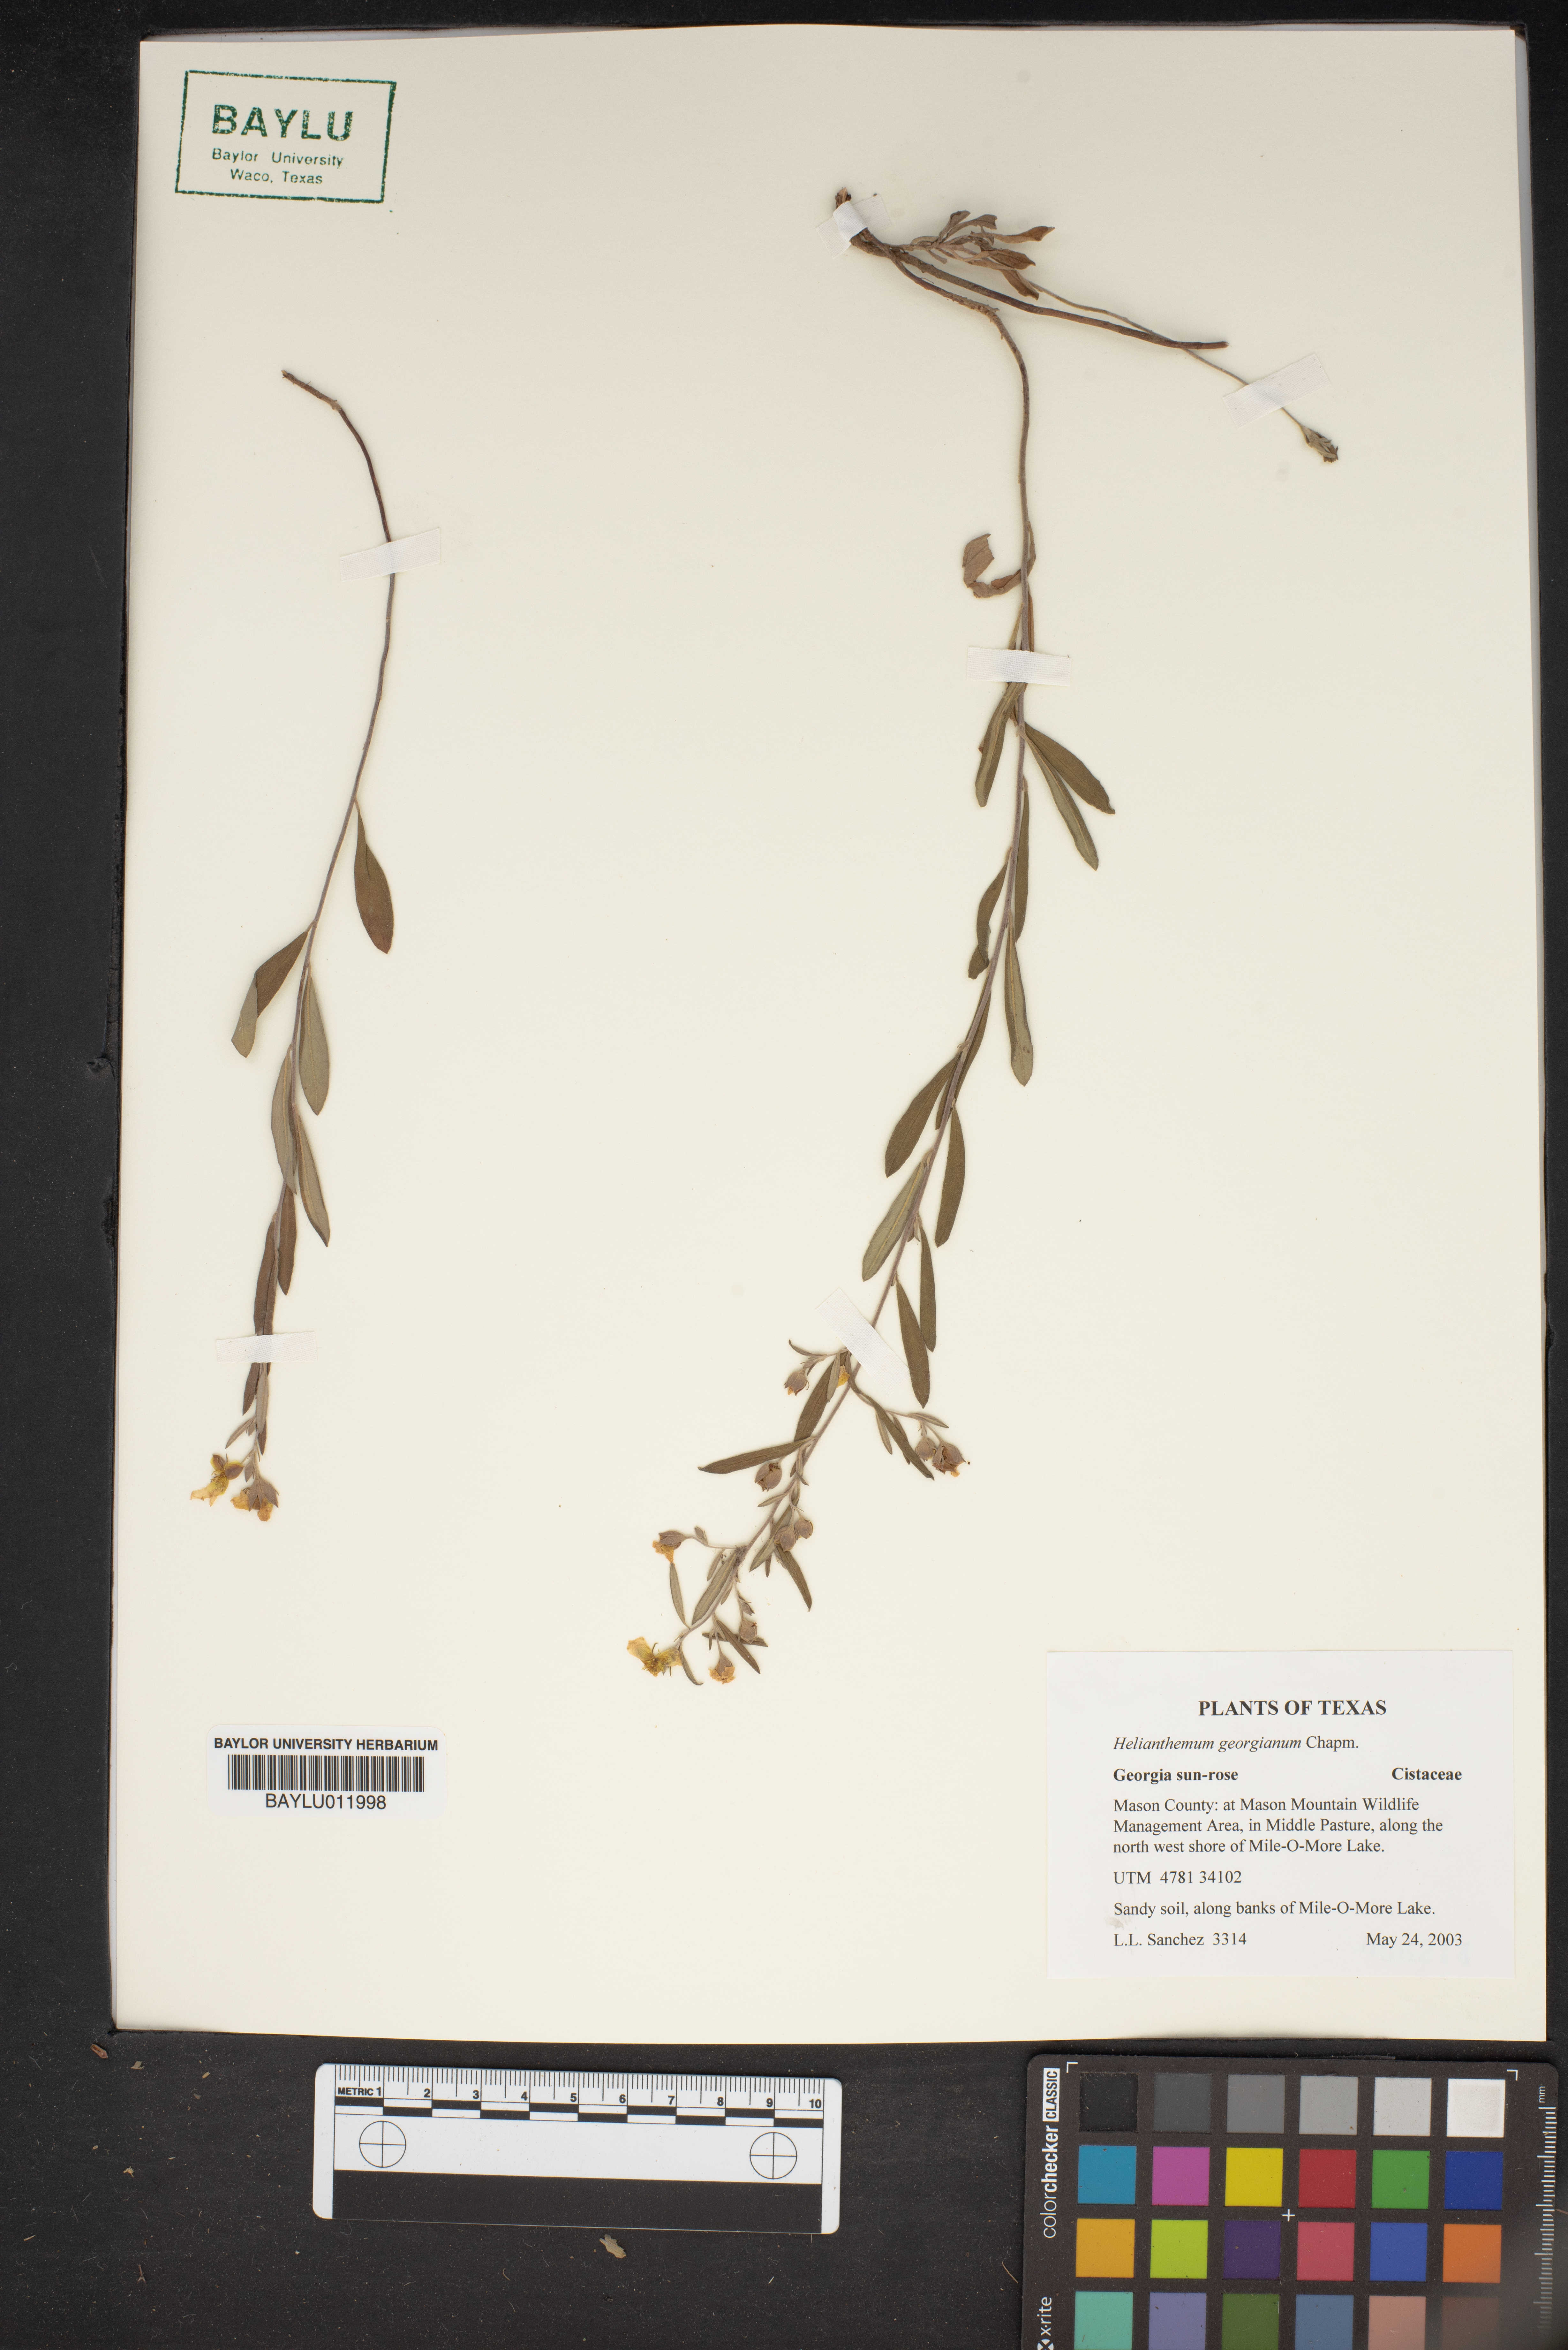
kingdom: Plantae
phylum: Tracheophyta
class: Magnoliopsida
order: Malvales
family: Cistaceae
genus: Crocanthemum
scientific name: Crocanthemum georgianum
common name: Georgia frostweed
